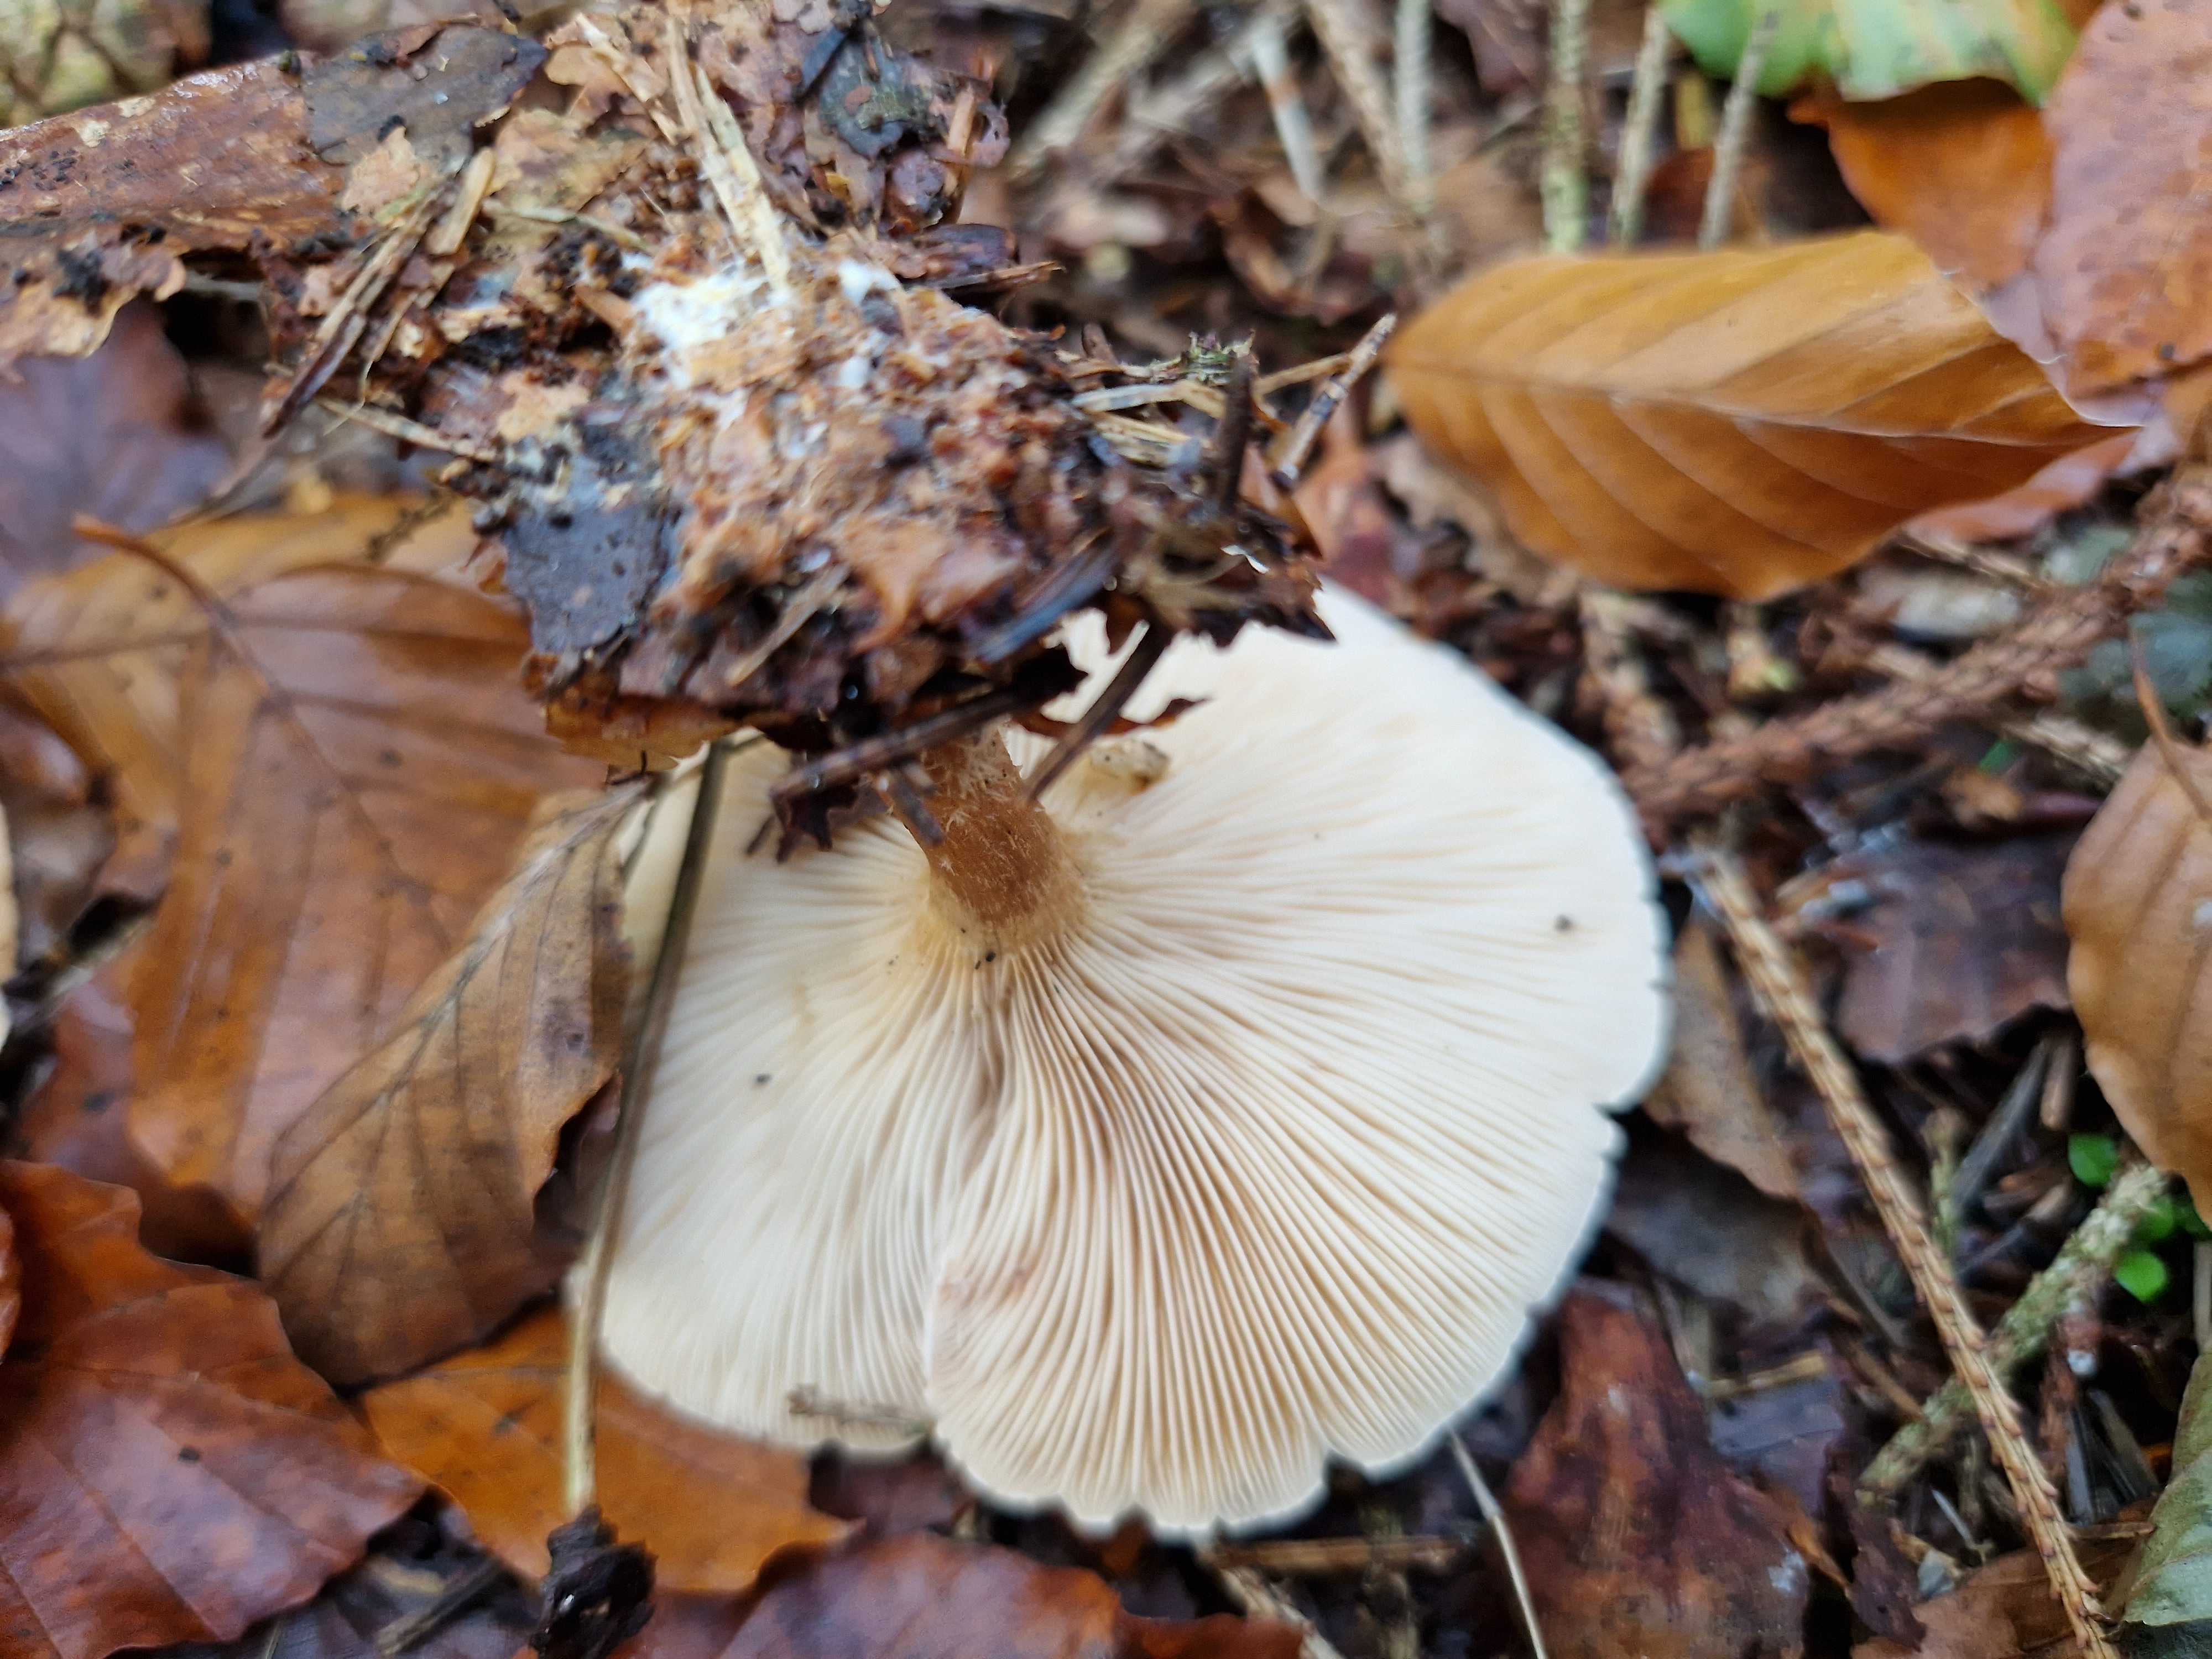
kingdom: Fungi
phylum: Basidiomycota
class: Agaricomycetes
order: Agaricales
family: Tricholomataceae
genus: Paralepista
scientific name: Paralepista flaccida
